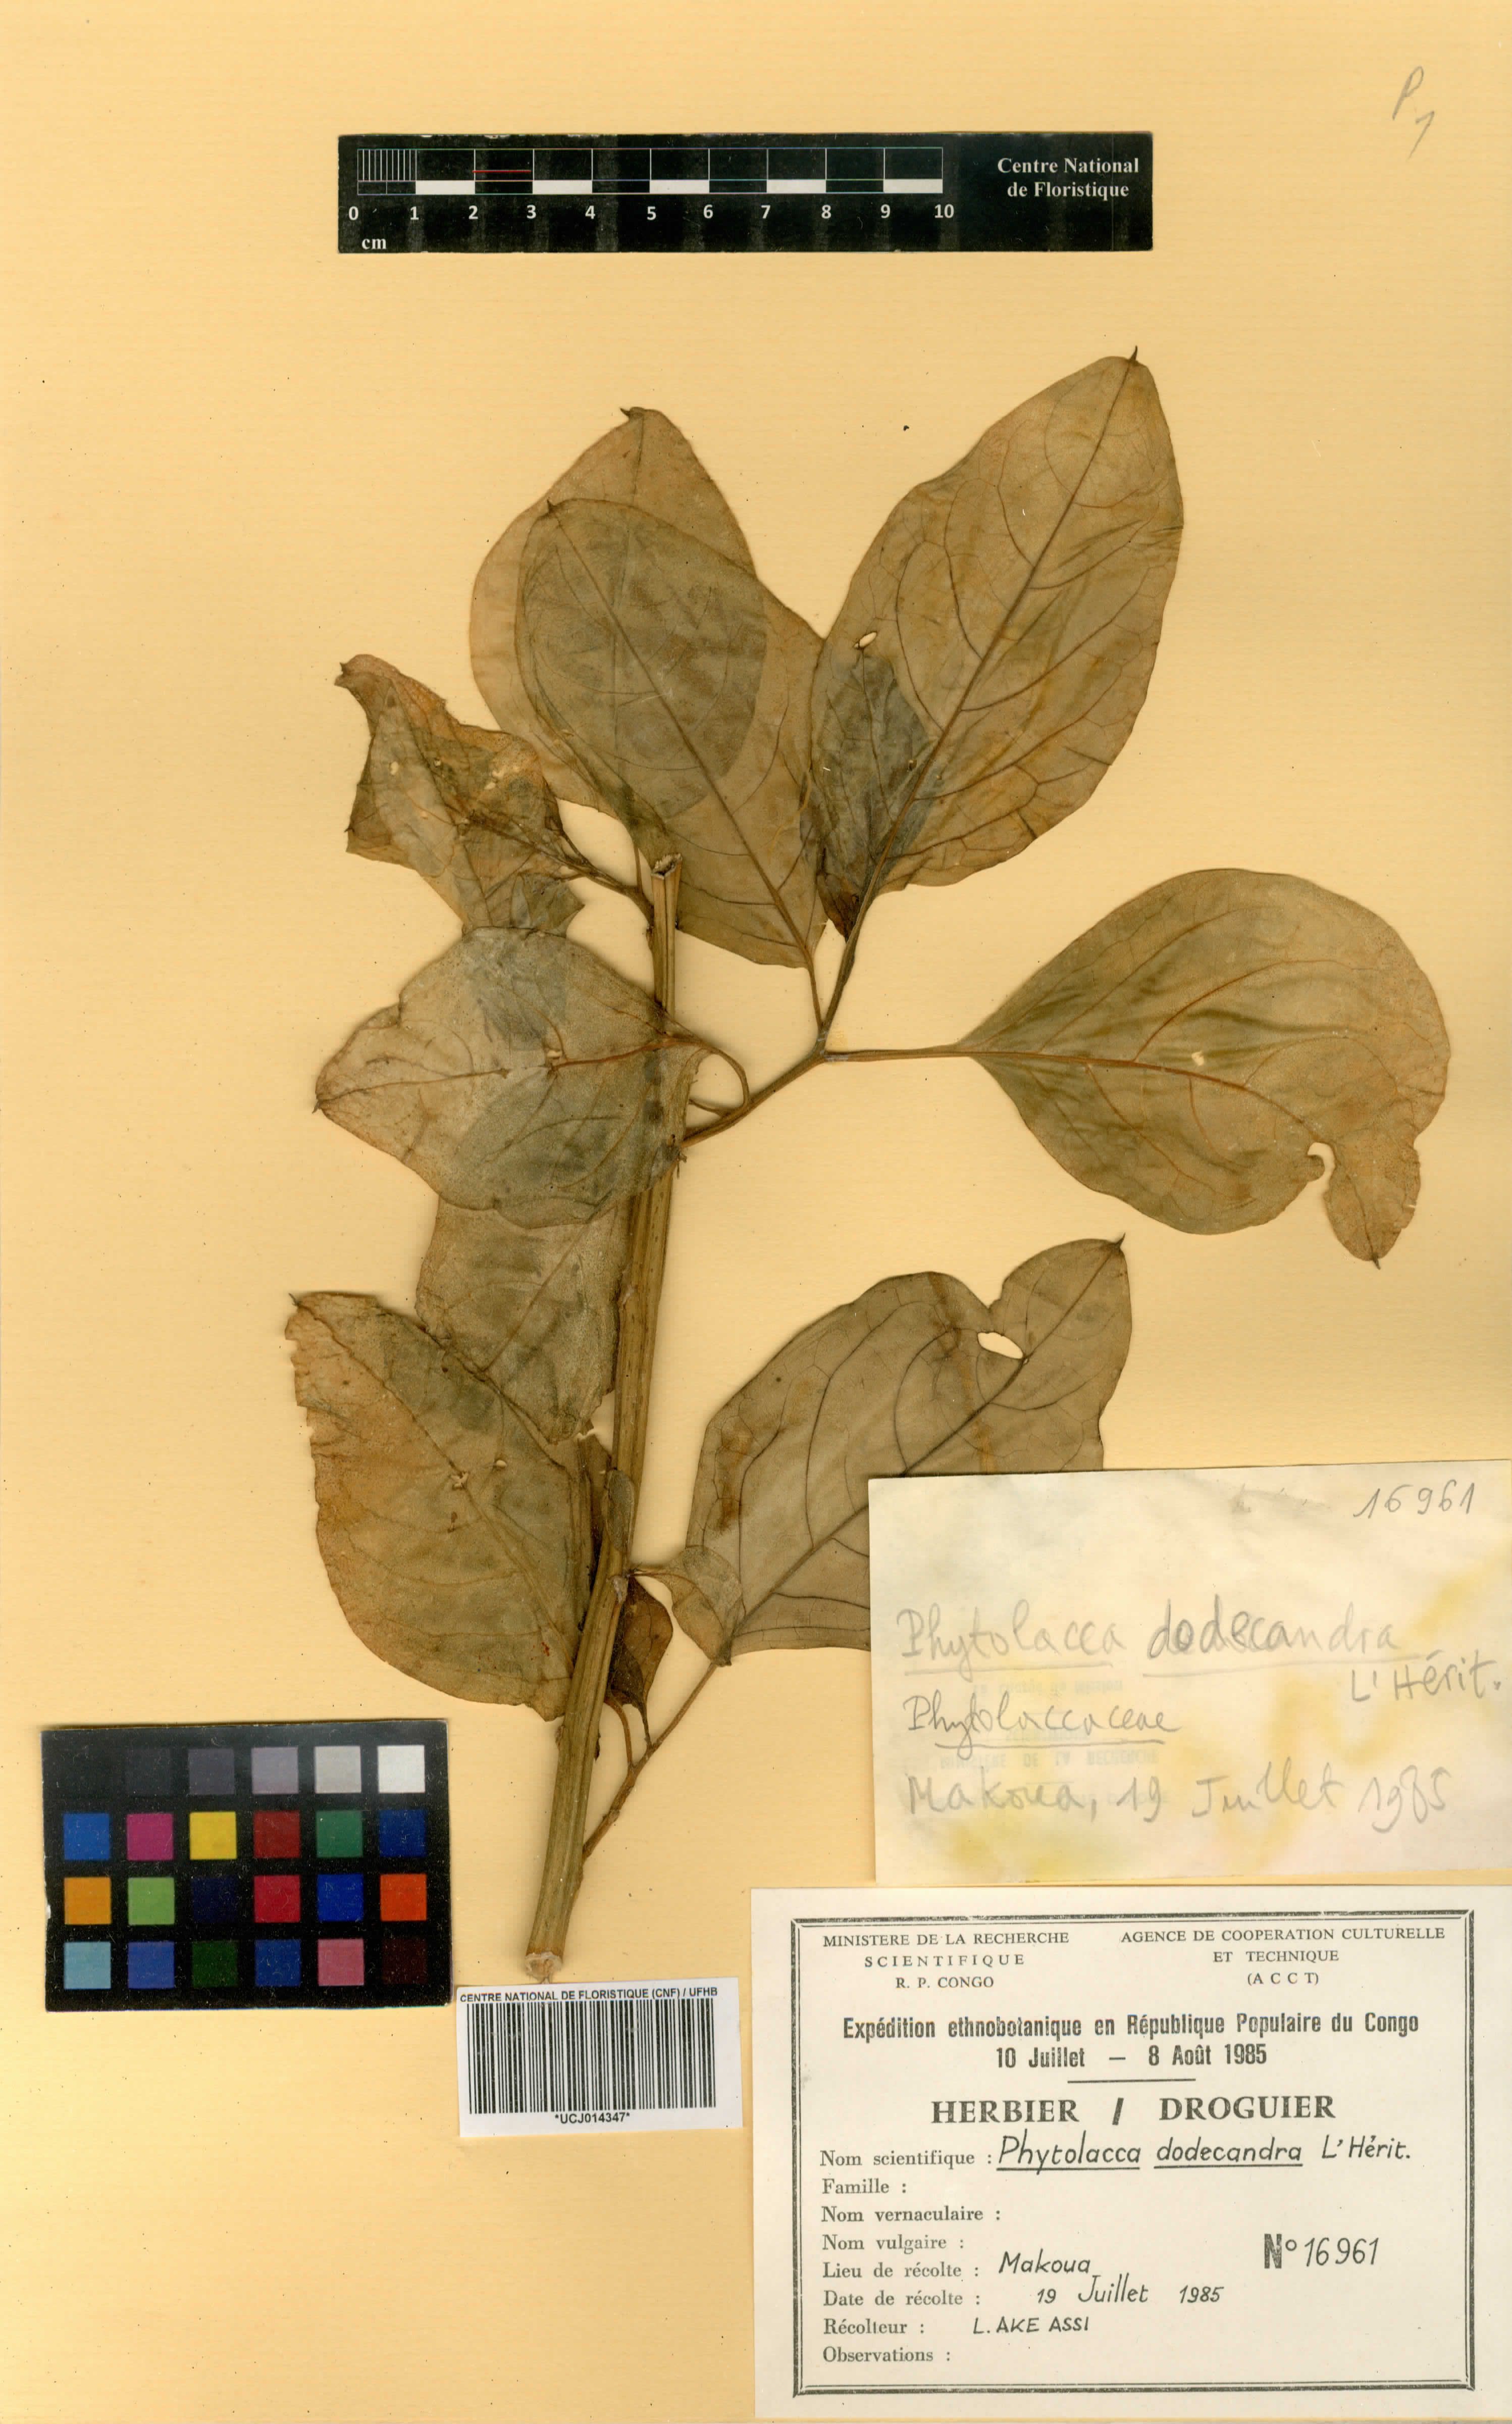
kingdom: Plantae
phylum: Tracheophyta
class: Magnoliopsida
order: Caryophyllales
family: Phytolaccaceae
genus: Phytolacca
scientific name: Phytolacca dodecandra
